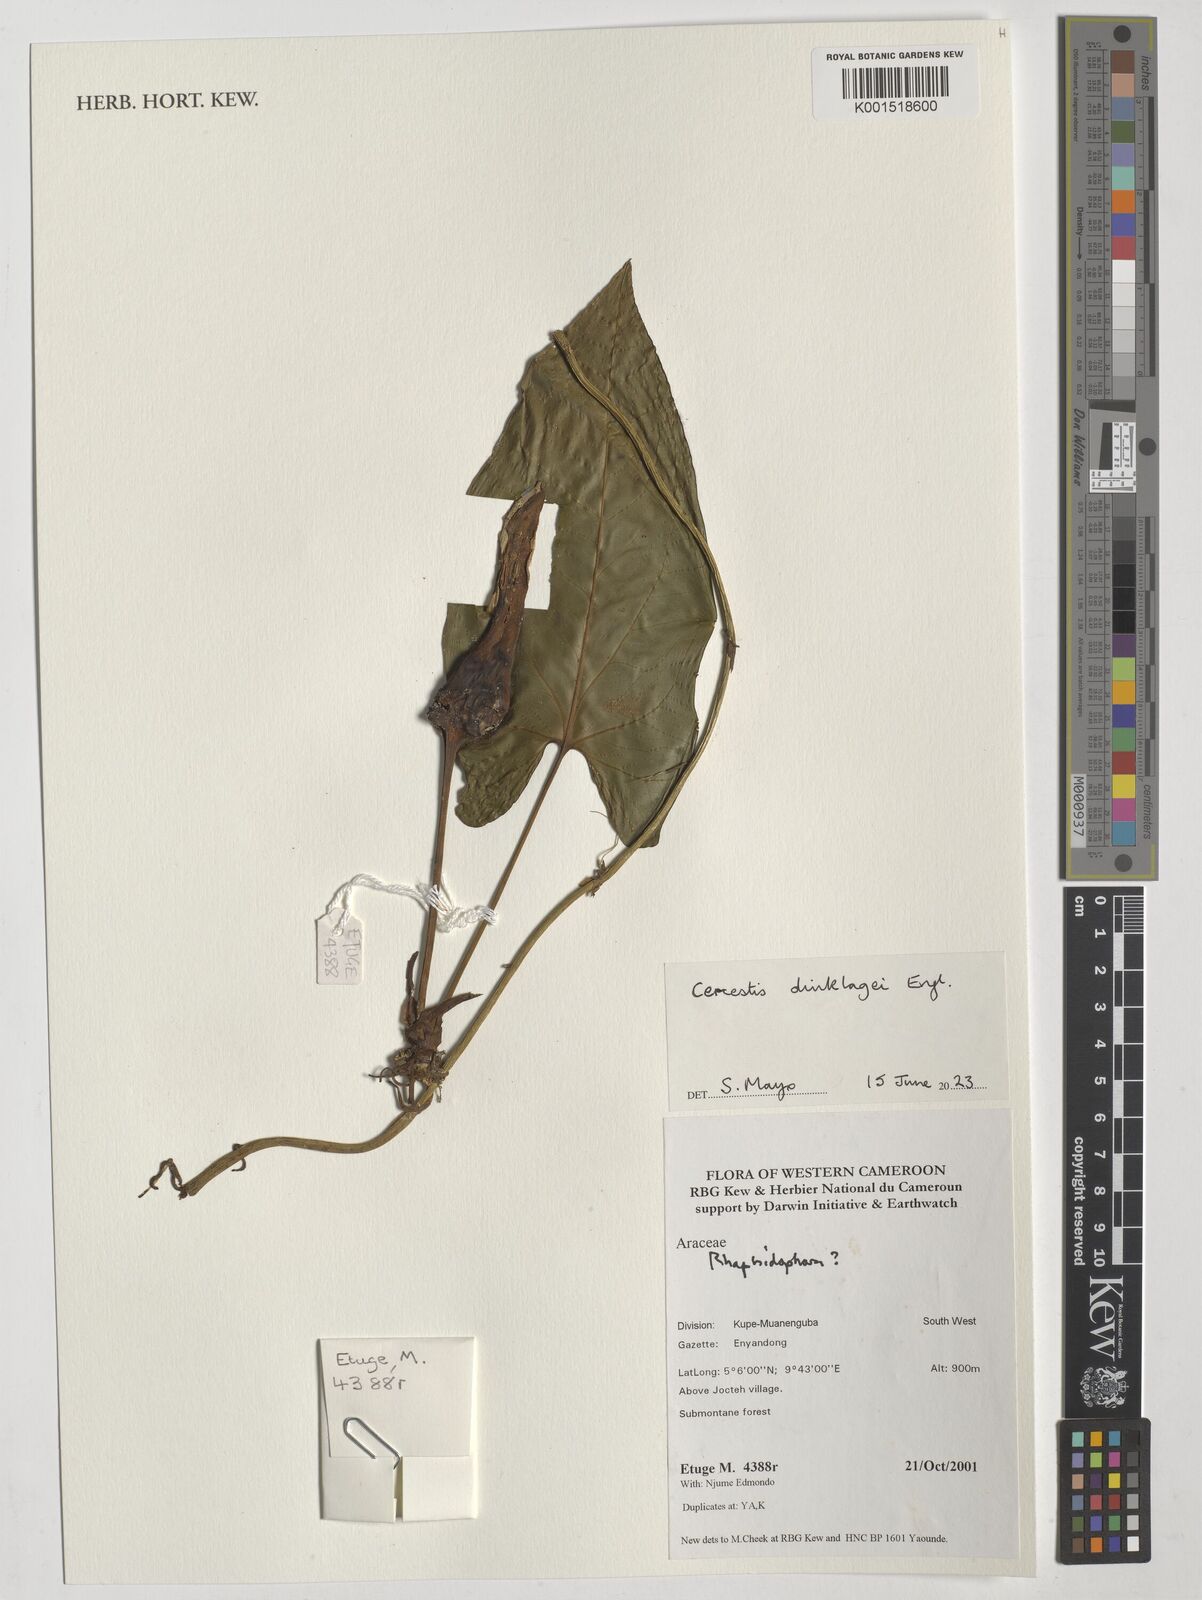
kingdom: Plantae
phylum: Tracheophyta
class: Liliopsida
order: Alismatales
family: Araceae
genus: Cercestis
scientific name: Cercestis dinklagei
